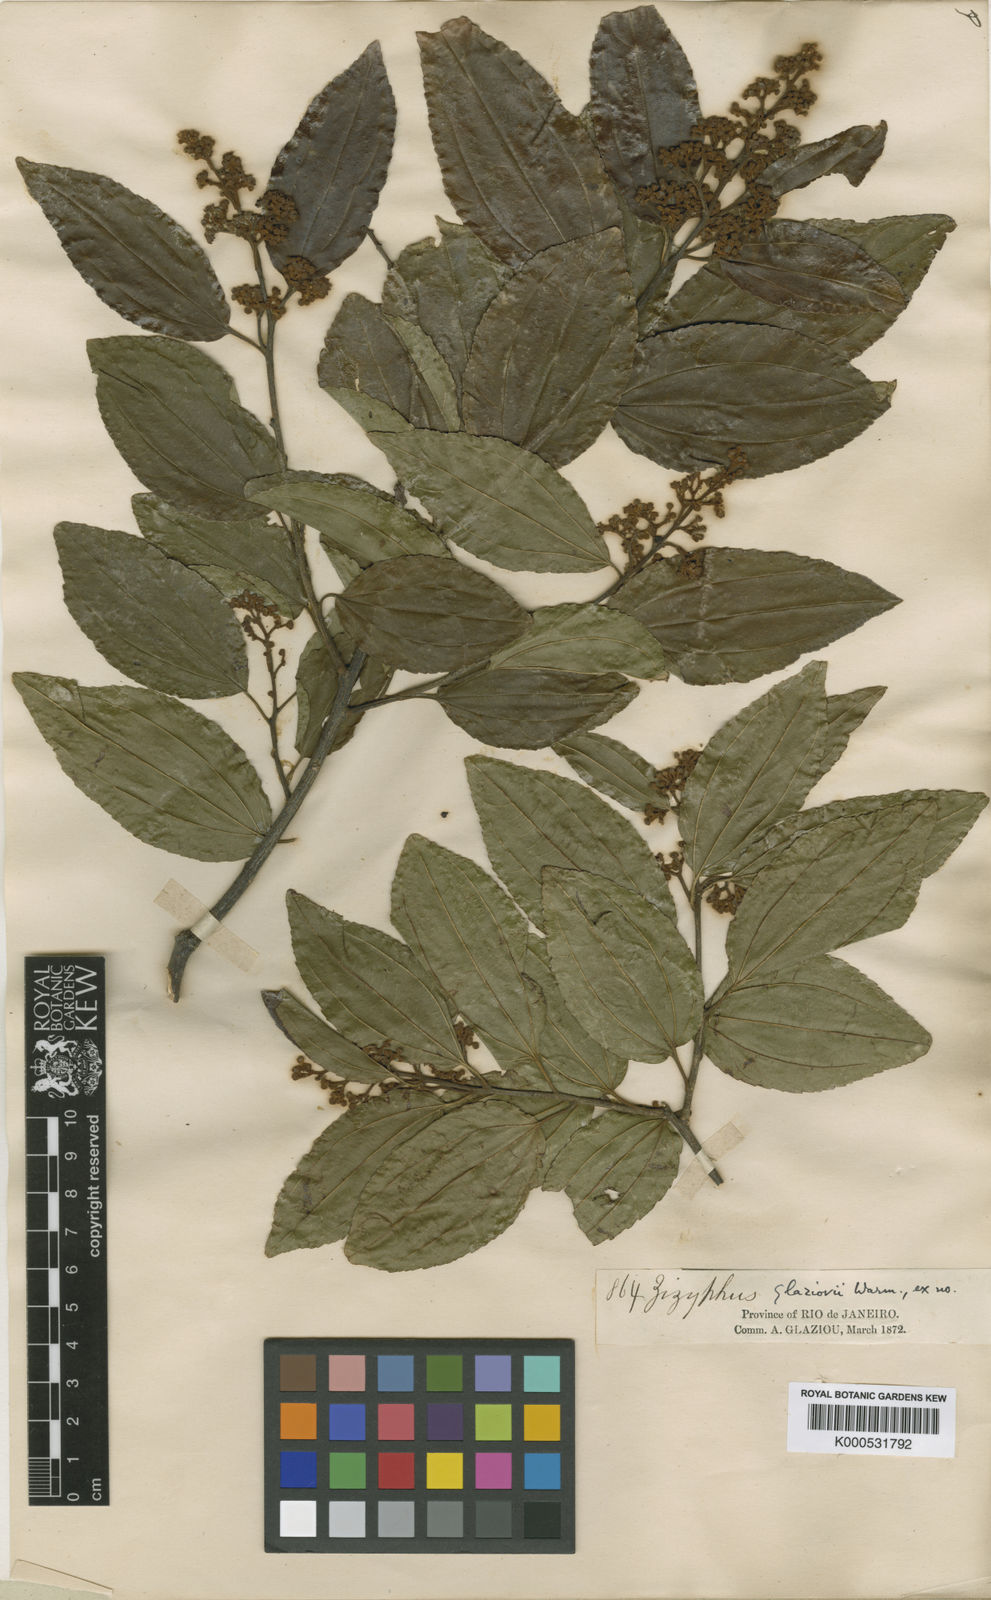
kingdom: Plantae
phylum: Tracheophyta
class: Magnoliopsida
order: Rosales
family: Rhamnaceae
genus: Sarcomphalus
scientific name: Sarcomphalus glaziovii
